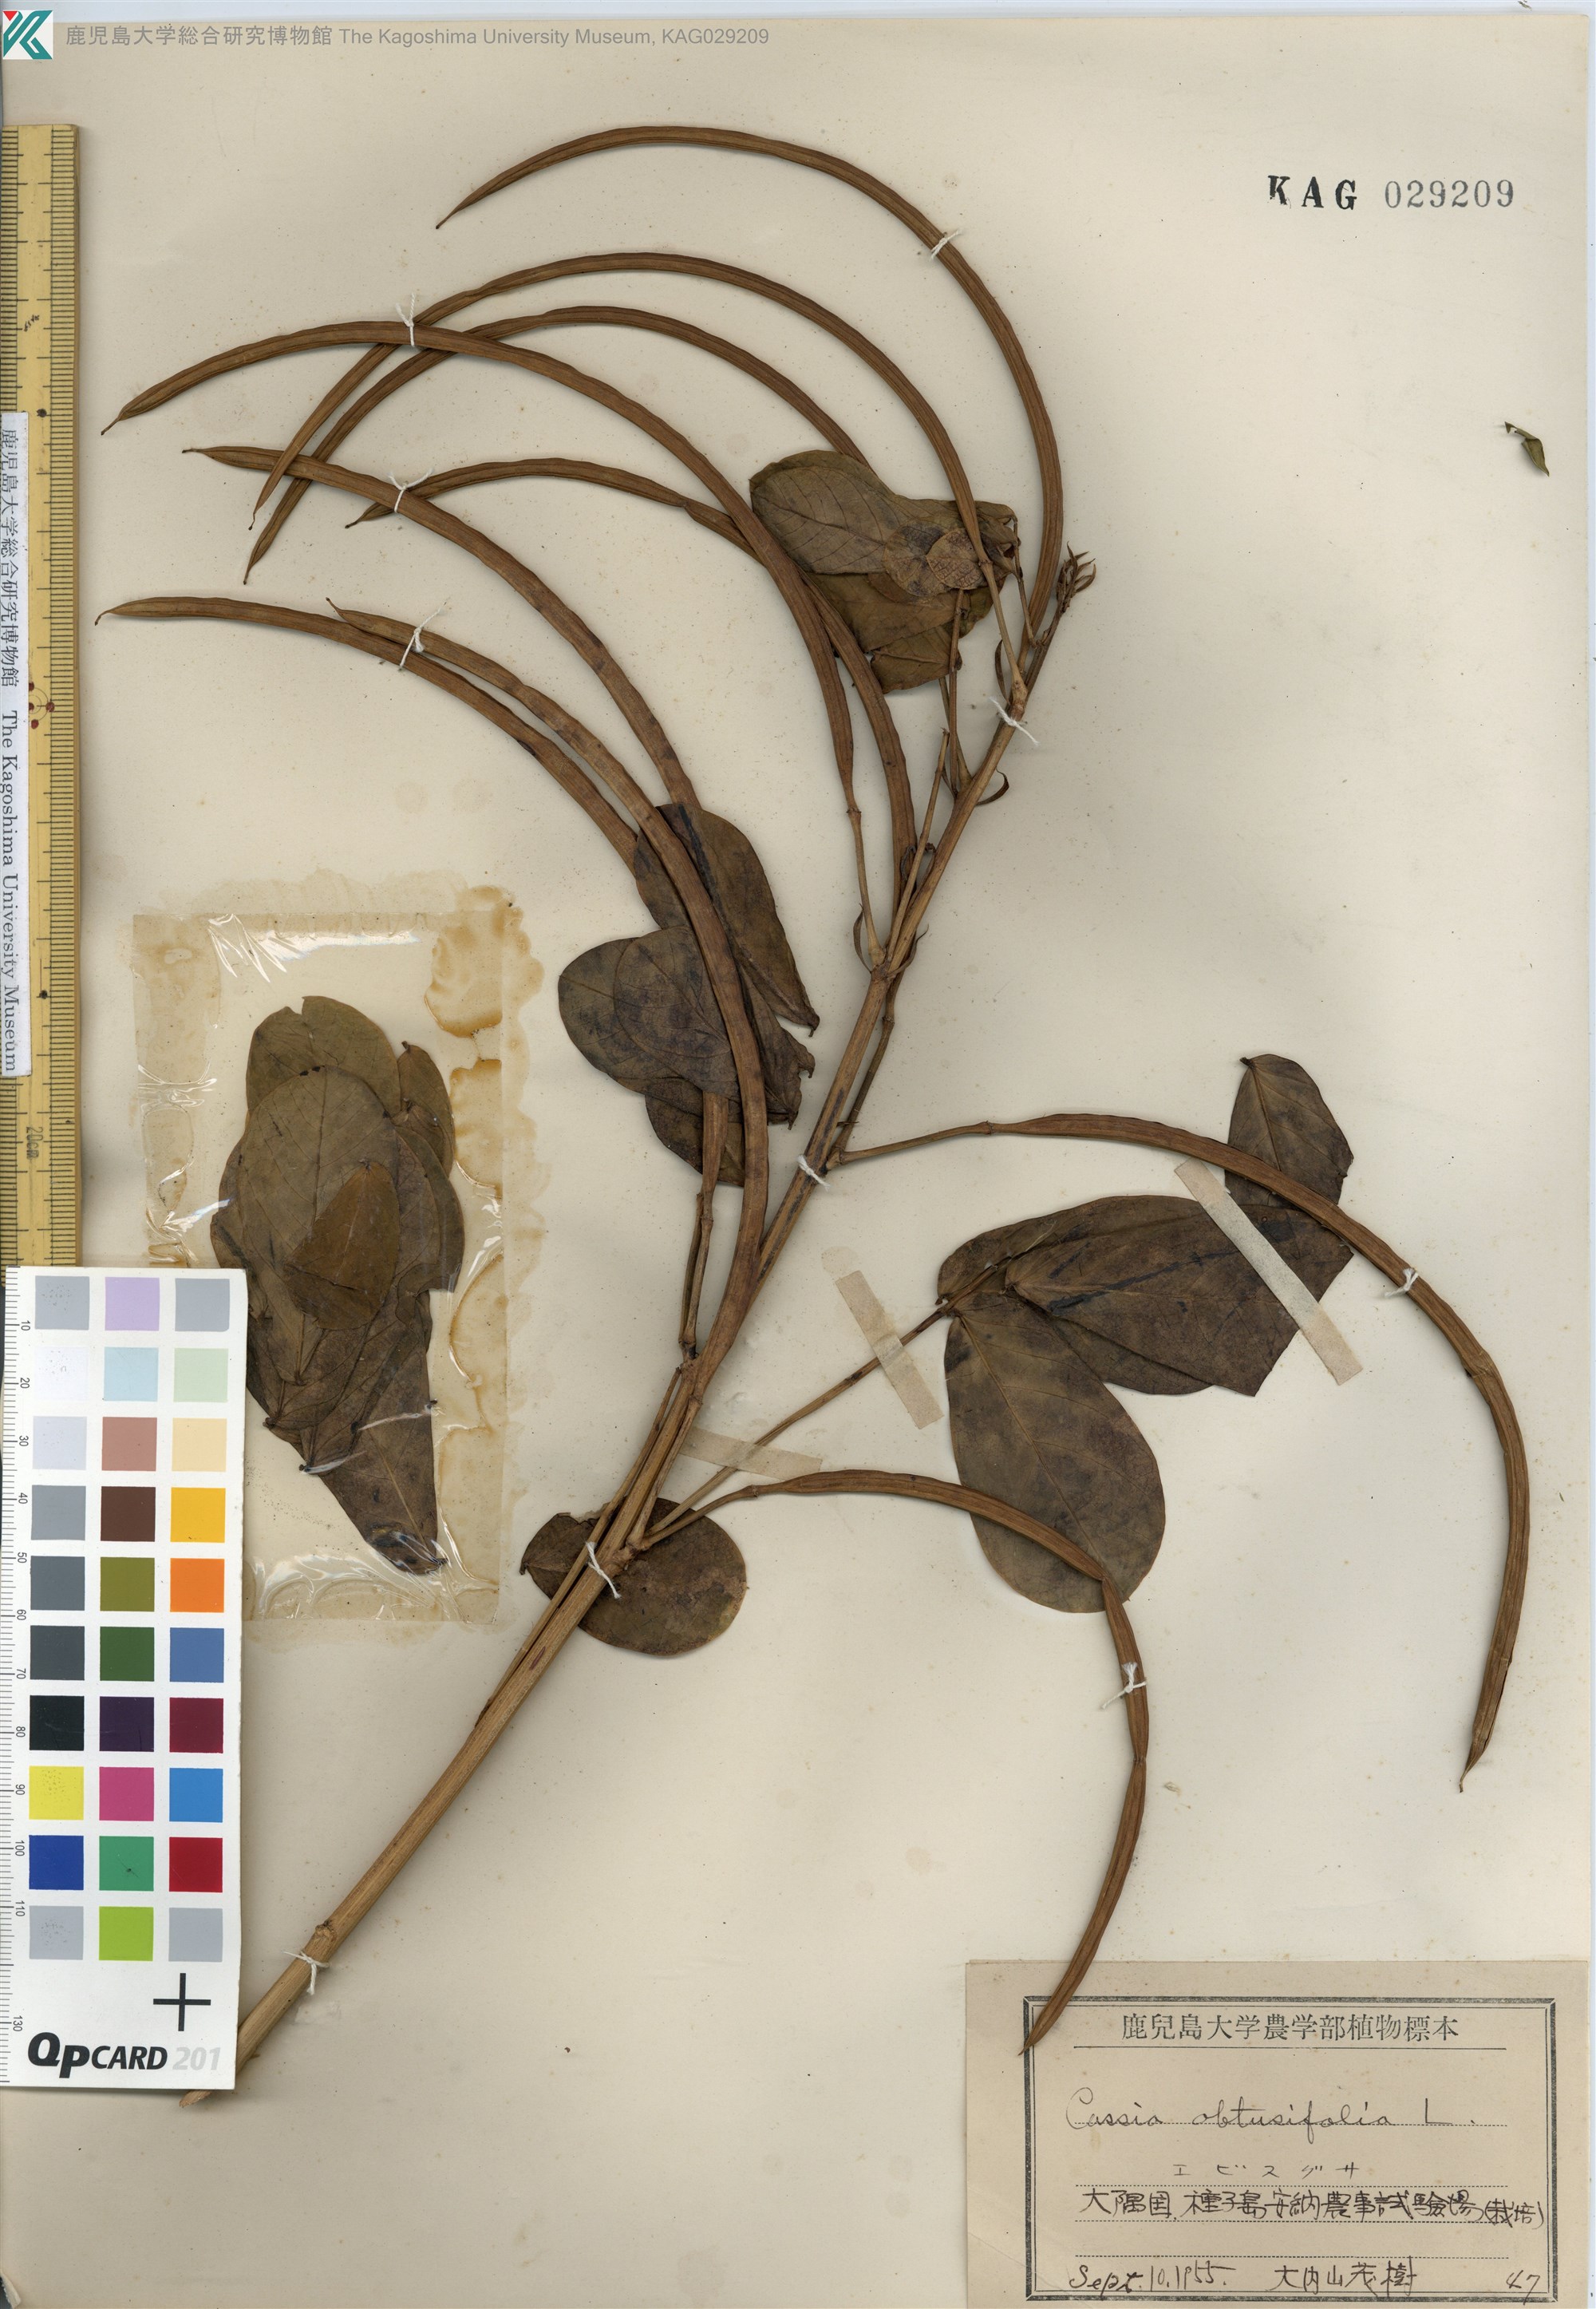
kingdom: Plantae
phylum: Tracheophyta
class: Magnoliopsida
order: Fabales
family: Fabaceae
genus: Senna
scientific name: Senna obtusifolia
